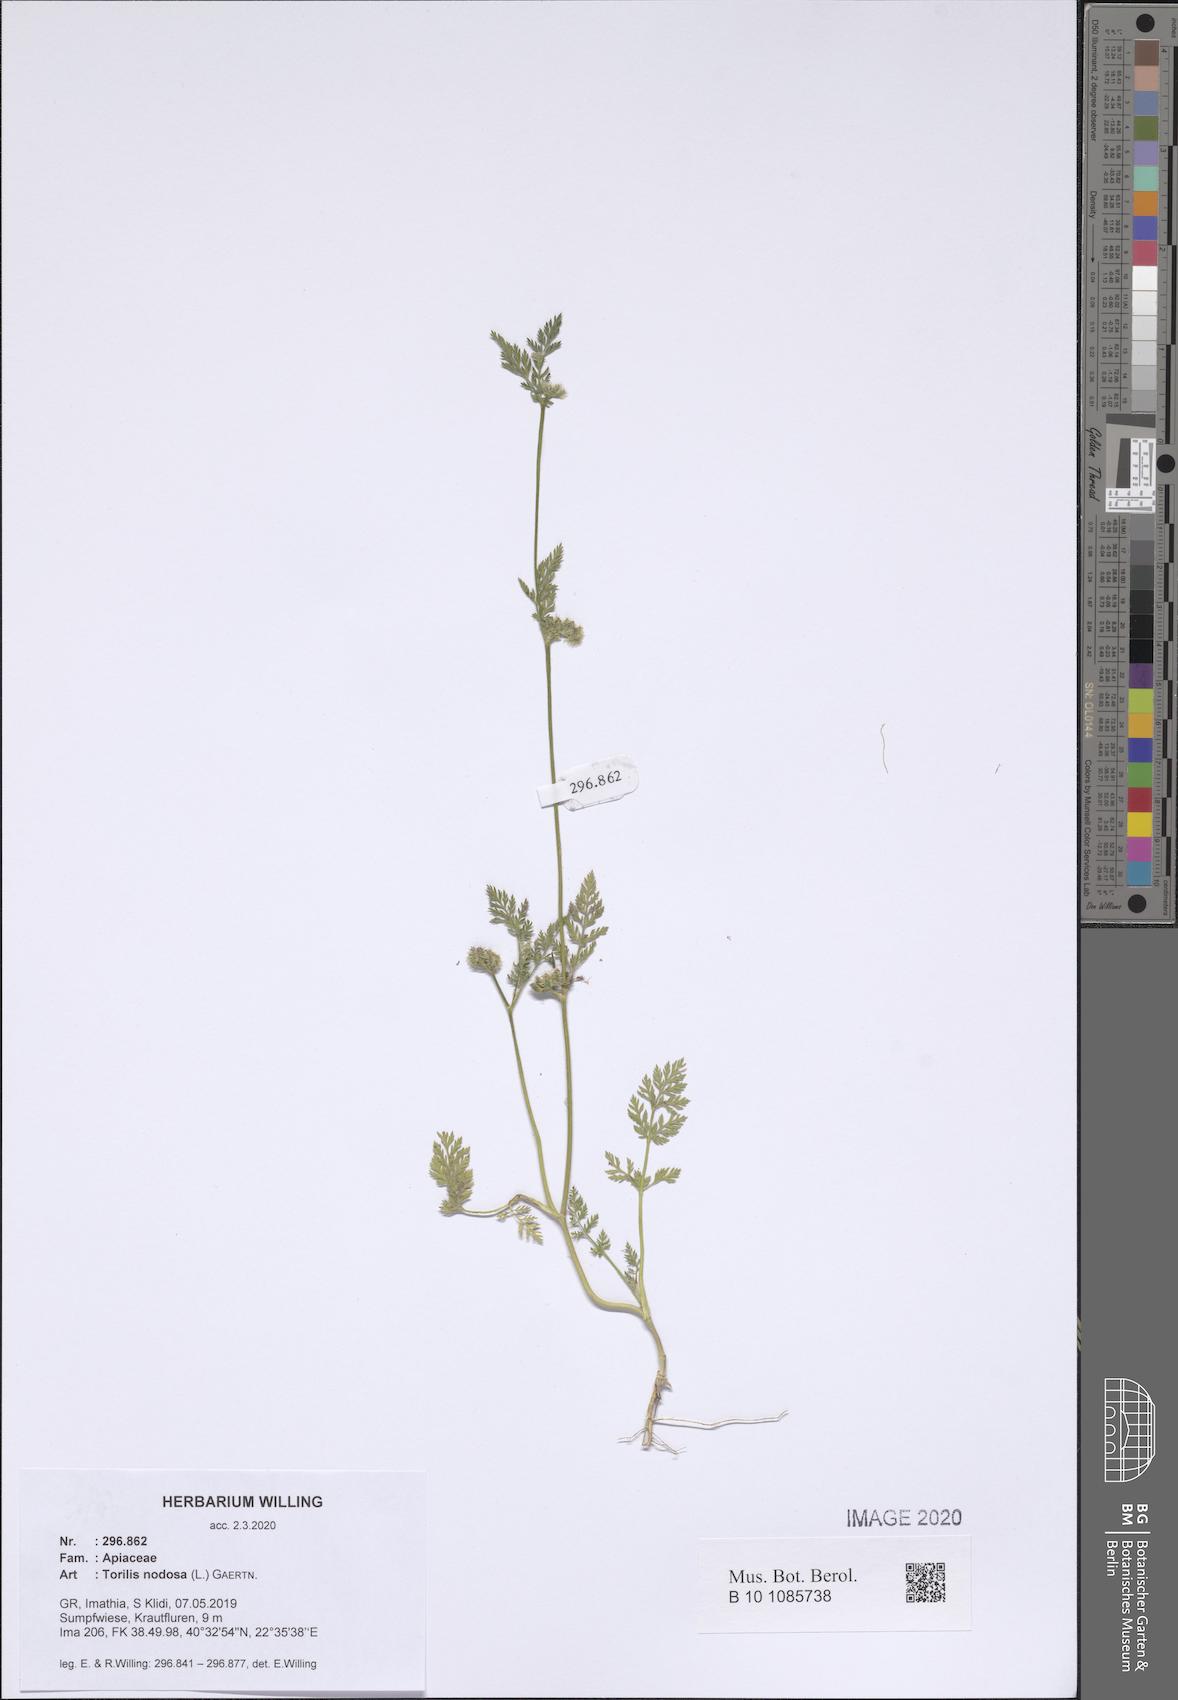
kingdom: Plantae
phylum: Tracheophyta
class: Magnoliopsida
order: Apiales
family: Apiaceae
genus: Torilis
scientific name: Torilis nodosa
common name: Knotted hedge-parsley
